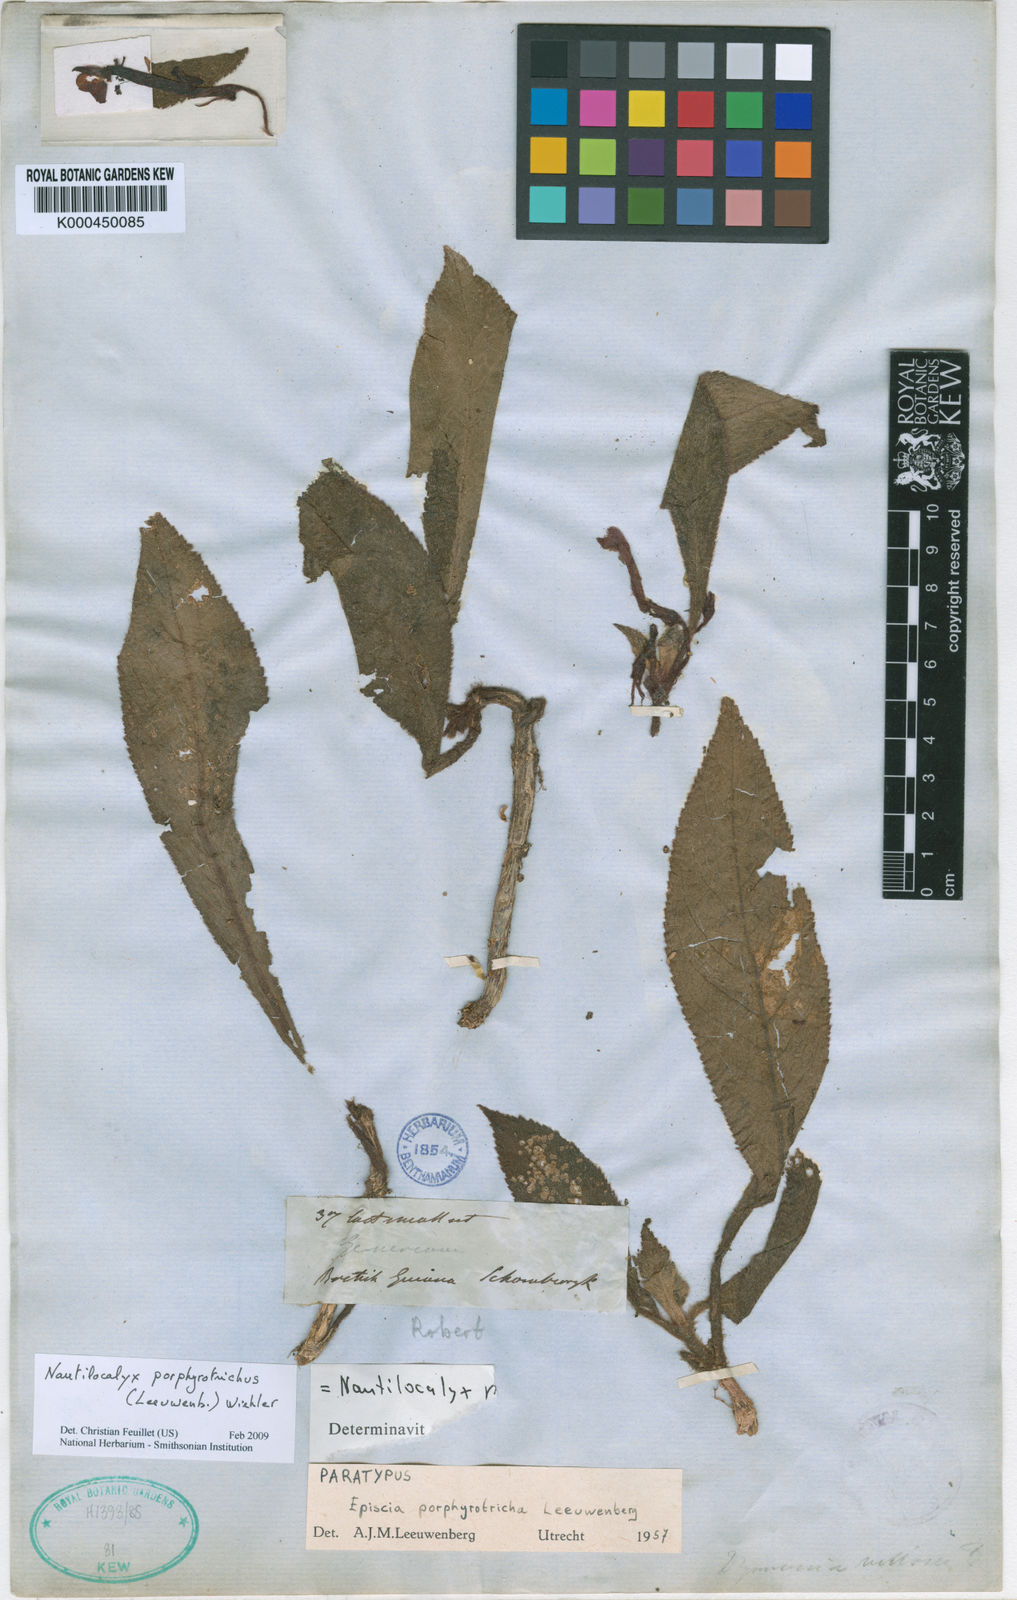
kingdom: Plantae
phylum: Tracheophyta
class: Magnoliopsida
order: Lamiales
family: Gesneriaceae
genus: Centrosolenia
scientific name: Centrosolenia porphyrotricha
